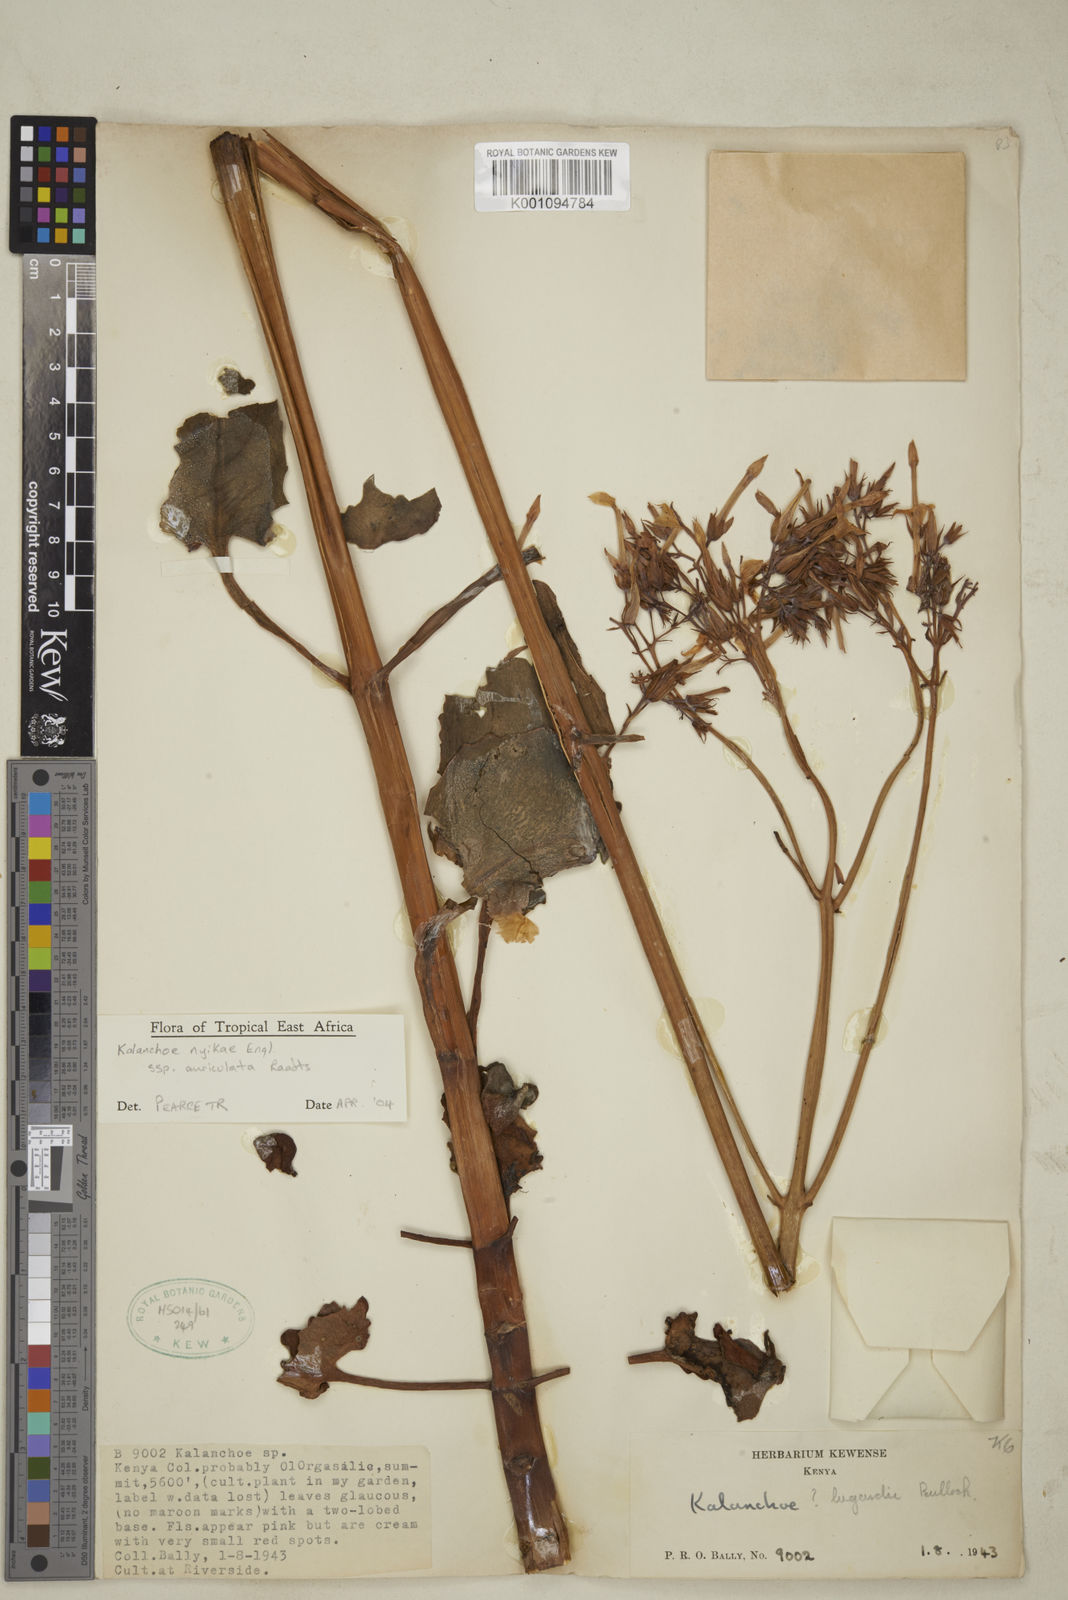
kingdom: Plantae
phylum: Tracheophyta
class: Magnoliopsida
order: Saxifragales
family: Crassulaceae
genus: Kalanchoe
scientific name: Kalanchoe nyikae
